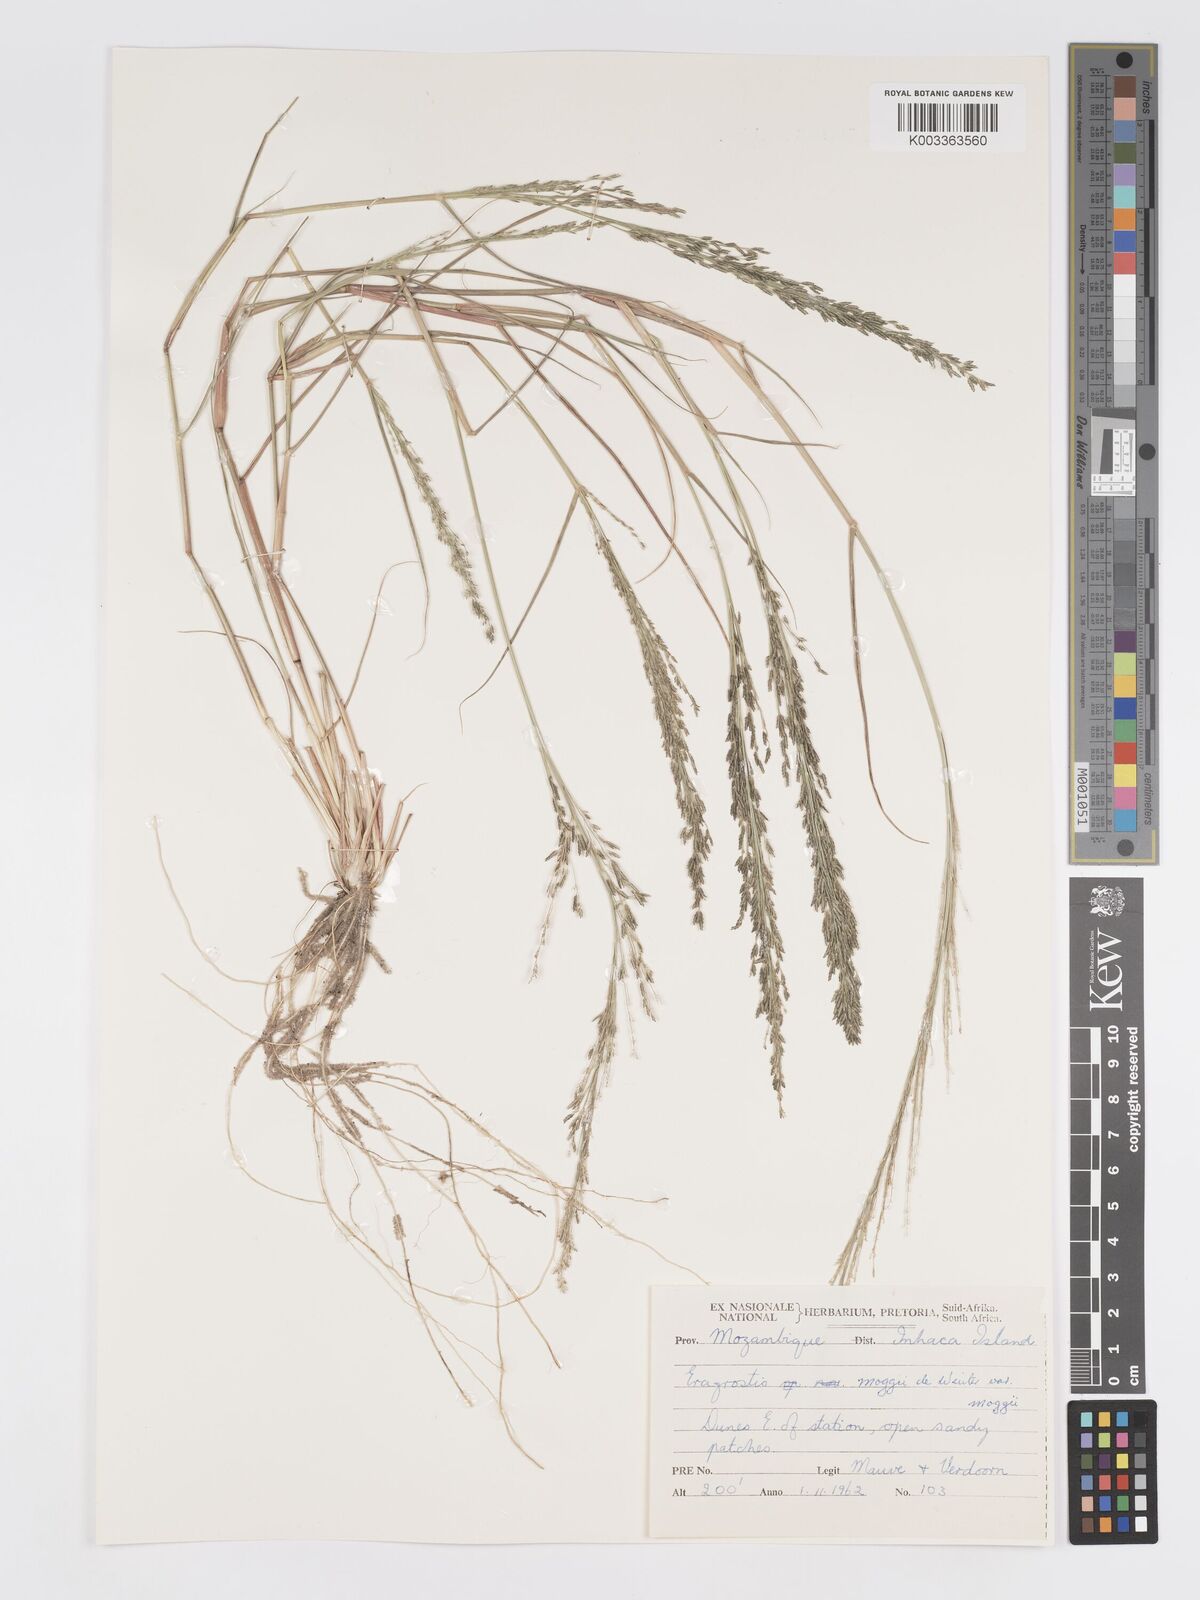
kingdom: Plantae
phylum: Tracheophyta
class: Liliopsida
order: Poales
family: Poaceae
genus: Eragrostis
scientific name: Eragrostis moggii
